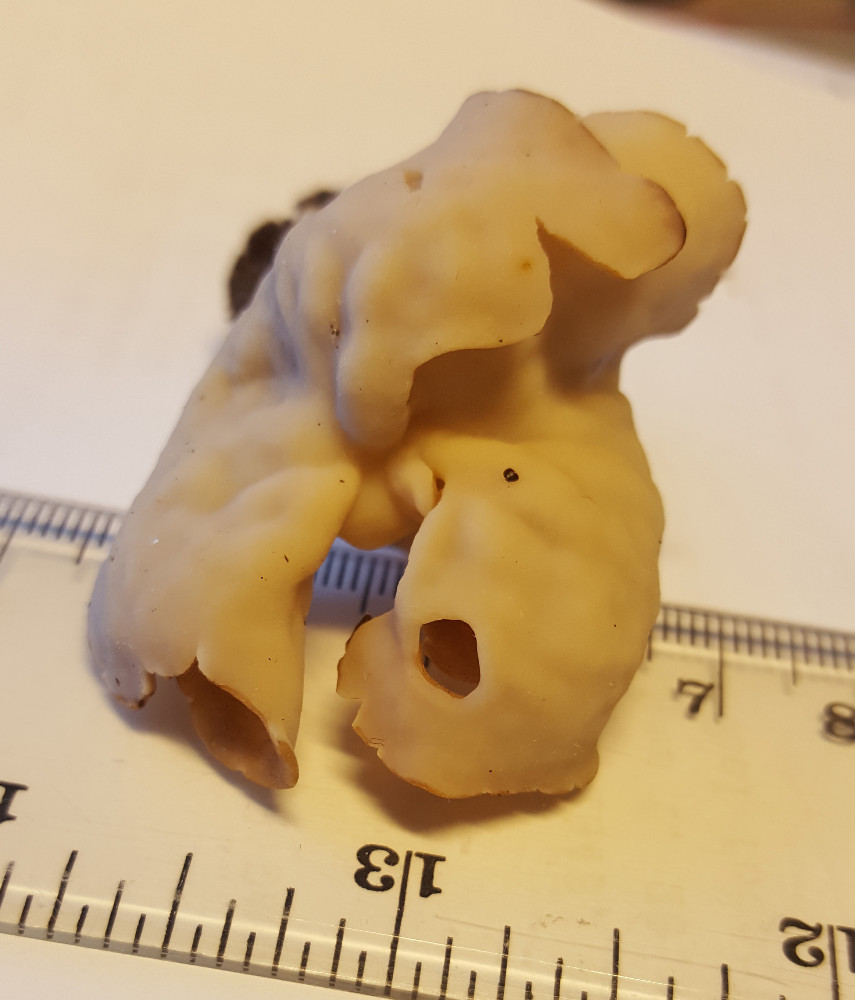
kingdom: Fungi
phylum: Ascomycota
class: Pezizomycetes
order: Pezizales
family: Helvellaceae
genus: Helvella
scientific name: Helvella crispa
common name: kruset foldhat
